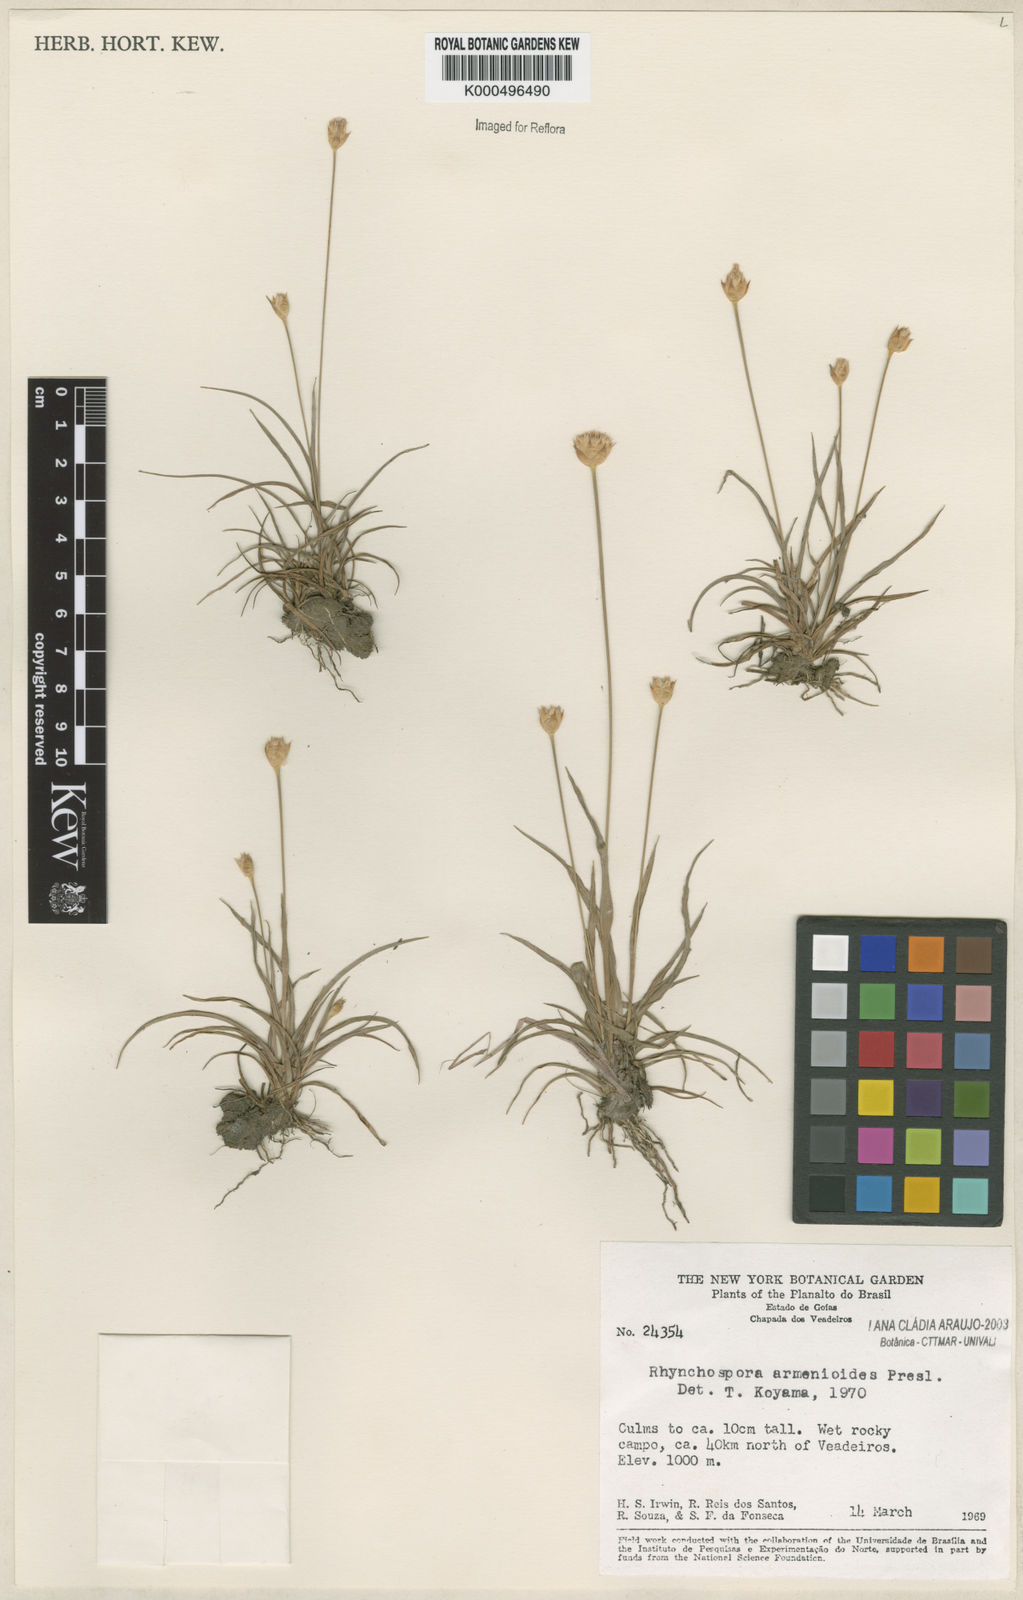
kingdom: Plantae
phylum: Tracheophyta
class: Liliopsida
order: Poales
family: Cyperaceae
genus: Rhynchospora
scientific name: Rhynchospora armerioides
